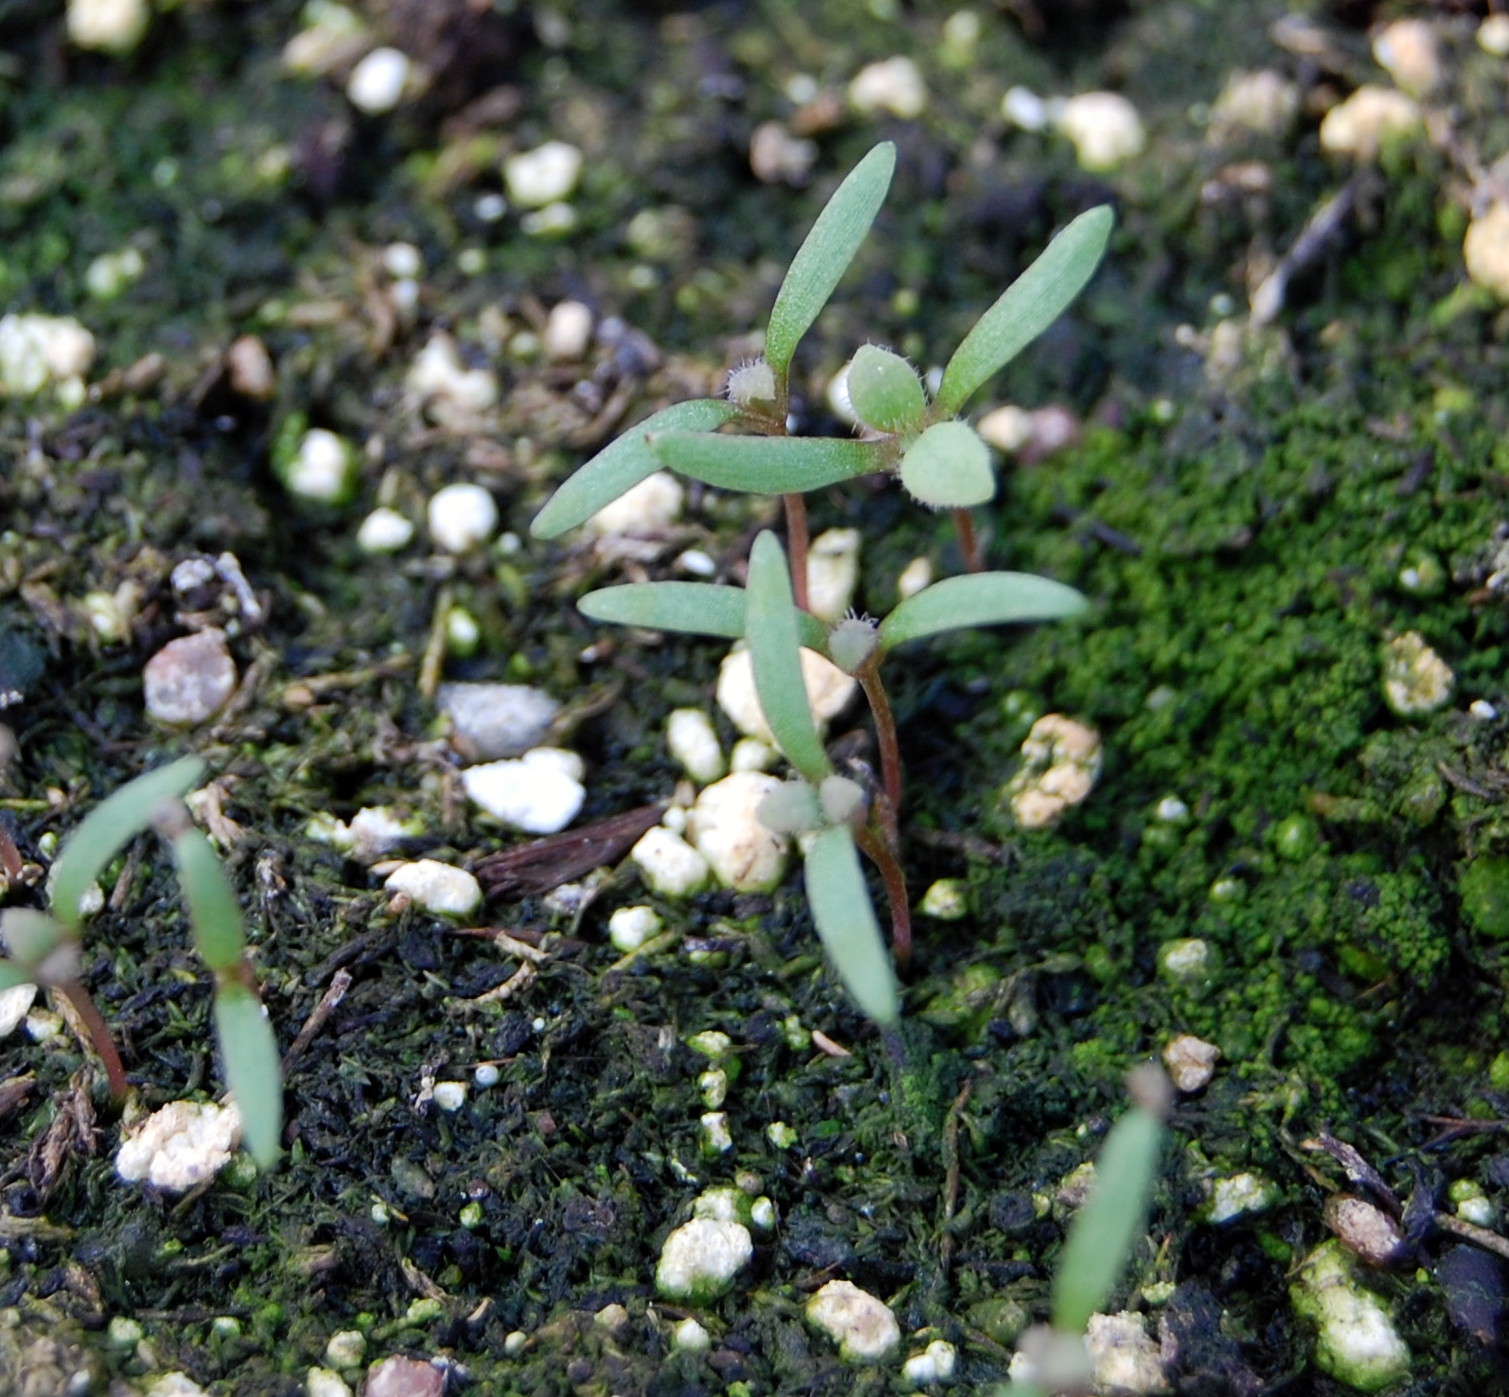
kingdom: Plantae
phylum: Tracheophyta
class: Magnoliopsida
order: Ranunculales
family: Papaveraceae
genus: Papaver
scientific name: Papaver somniferum
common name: Opium poppy
